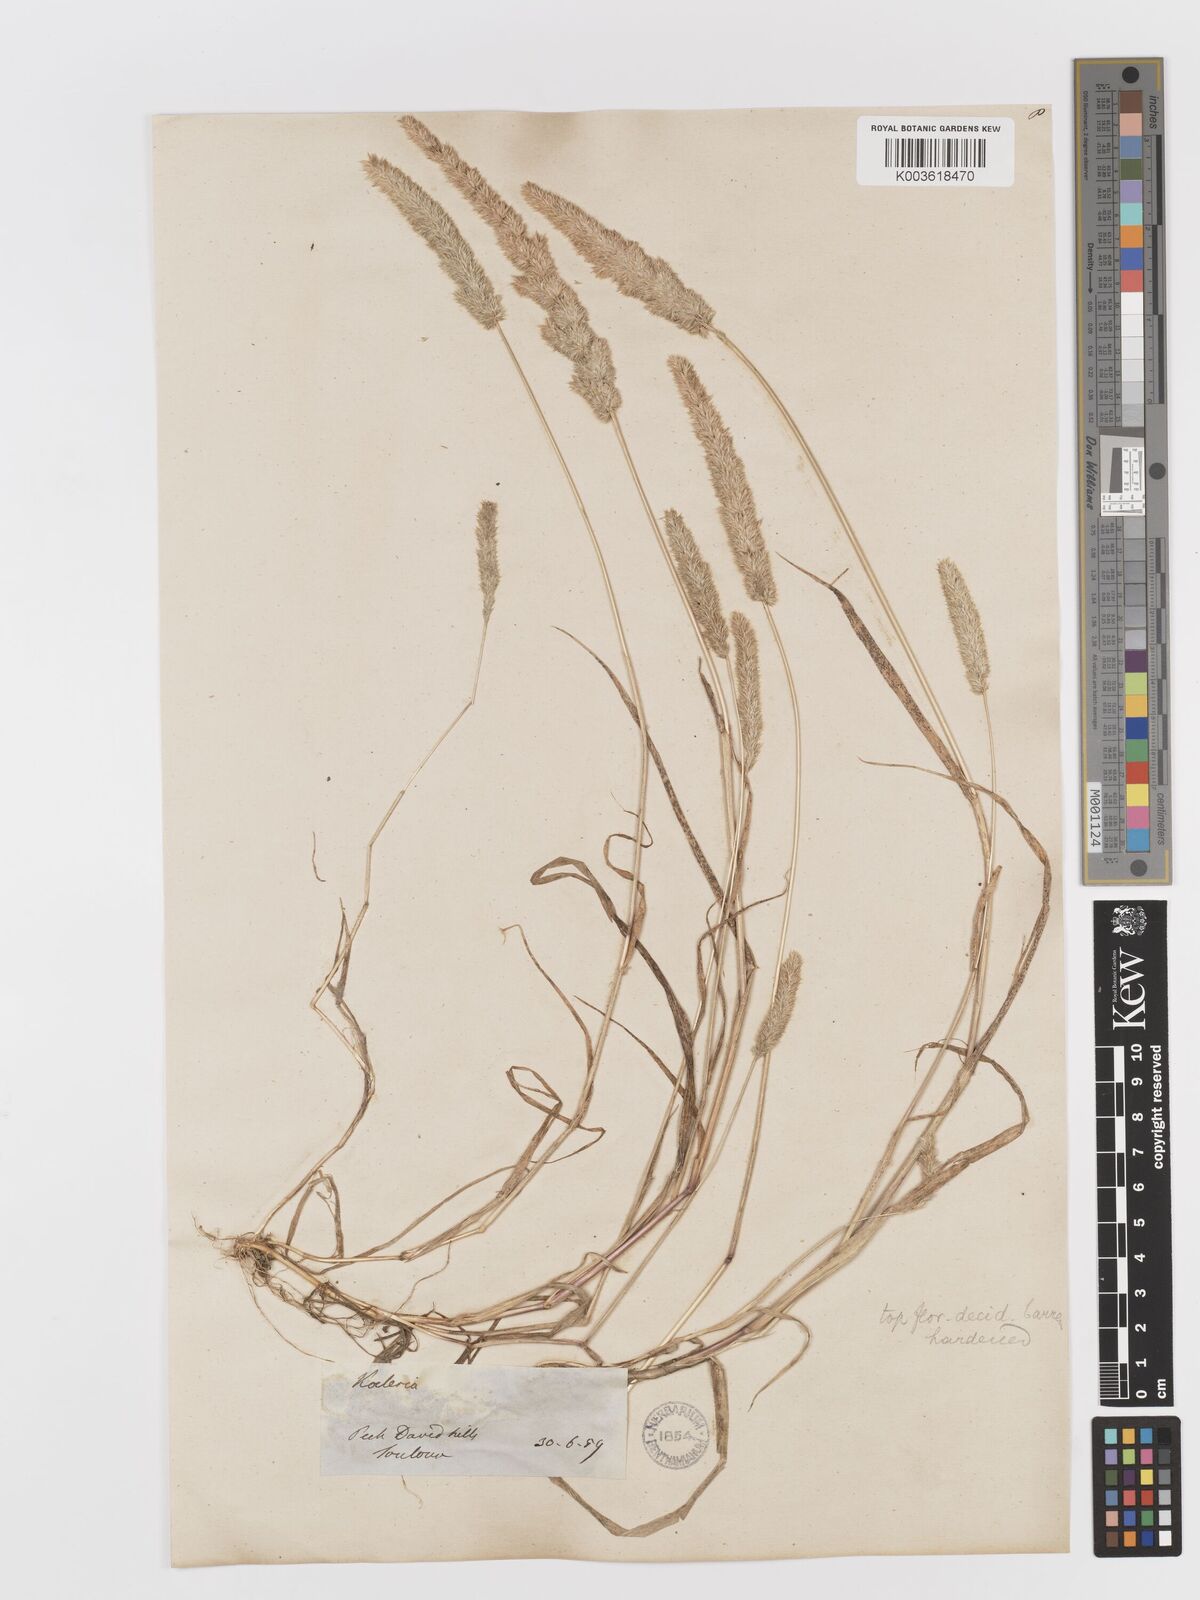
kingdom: Plantae
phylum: Tracheophyta
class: Liliopsida
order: Poales
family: Poaceae
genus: Rostraria
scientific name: Rostraria cristata
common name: Mediterranean hair-grass
